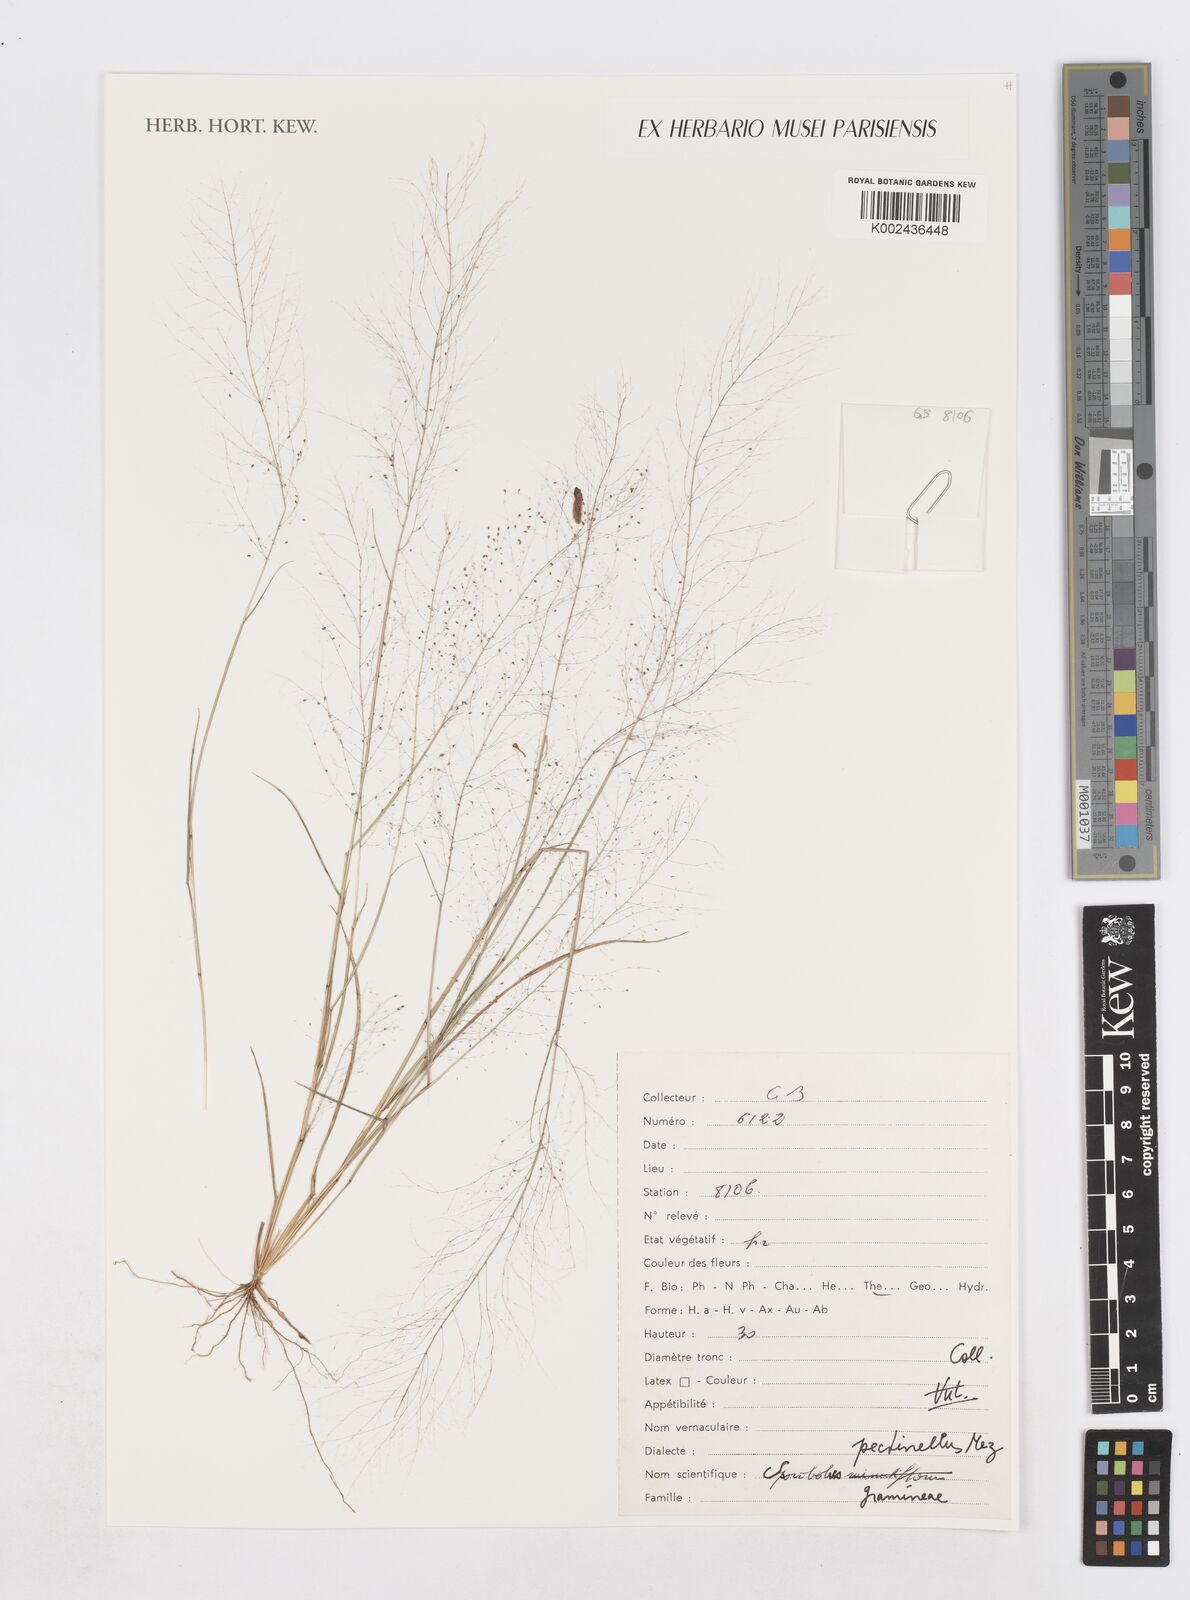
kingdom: Plantae
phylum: Tracheophyta
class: Liliopsida
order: Poales
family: Poaceae
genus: Sporobolus
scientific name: Sporobolus pectinellus
